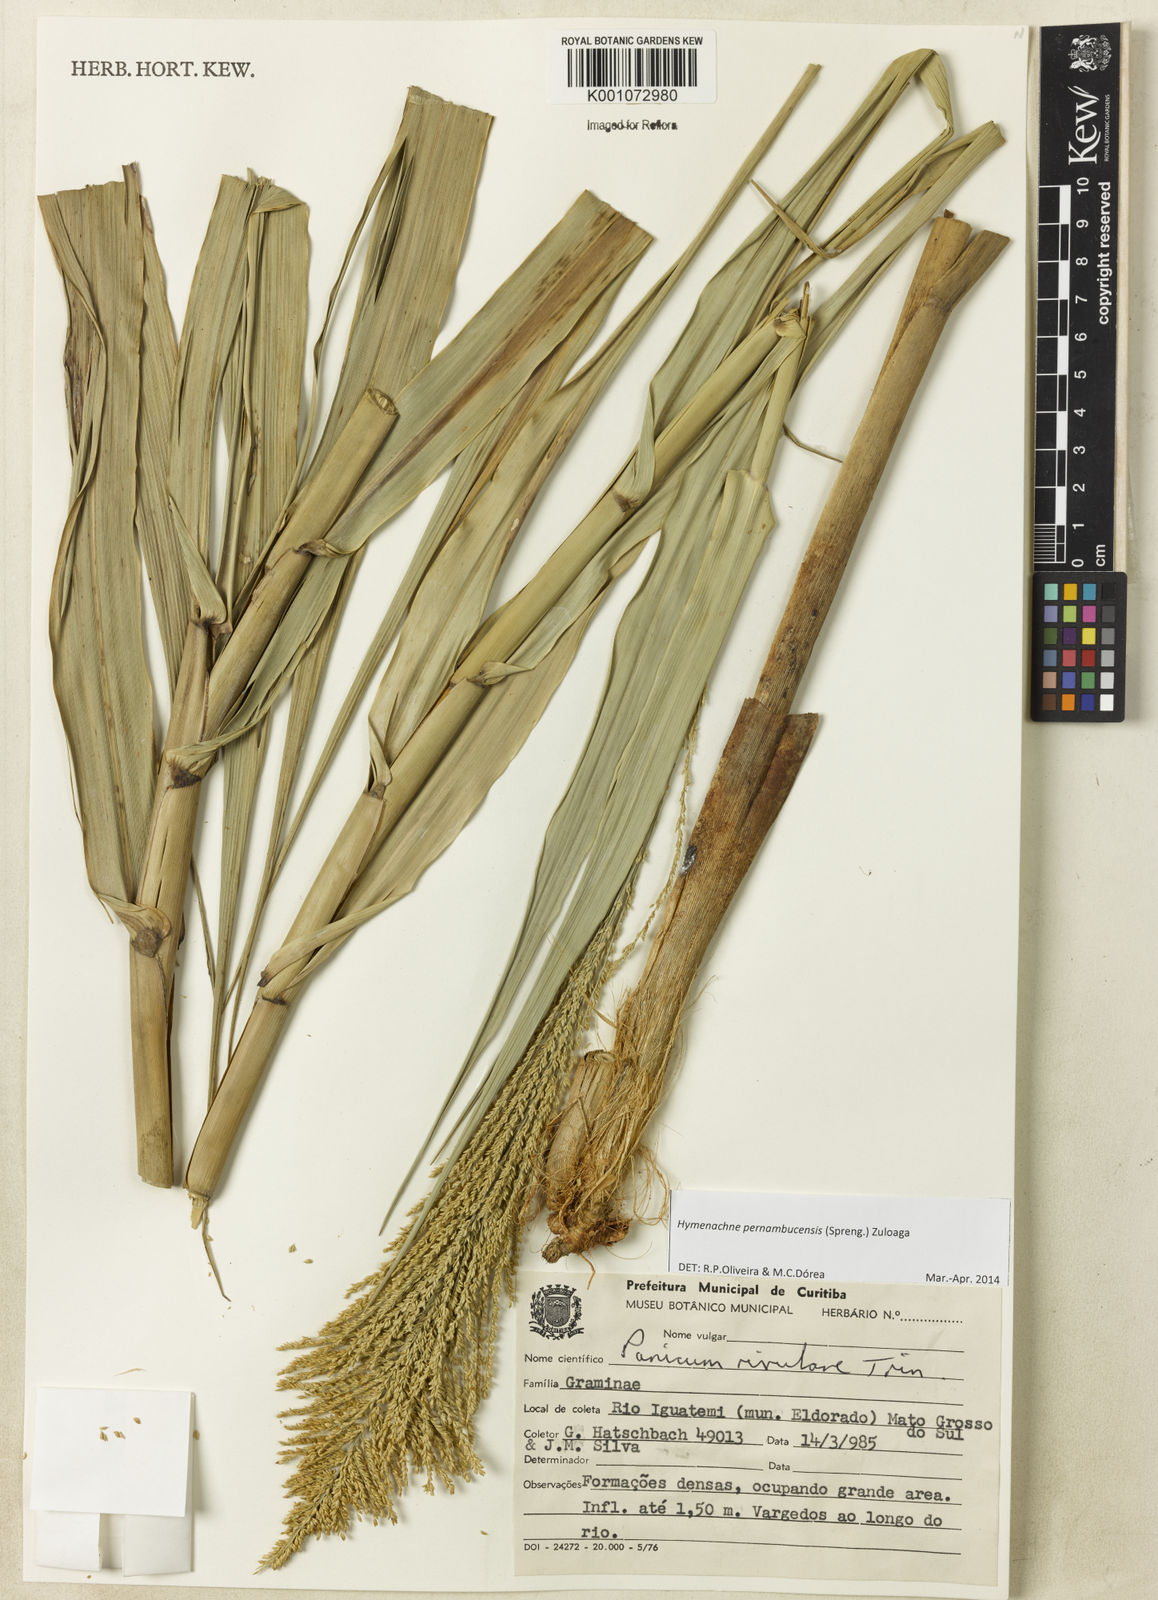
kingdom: Plantae
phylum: Tracheophyta
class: Liliopsida
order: Poales
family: Poaceae
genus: Hymenachne
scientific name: Hymenachne pernambucensis
